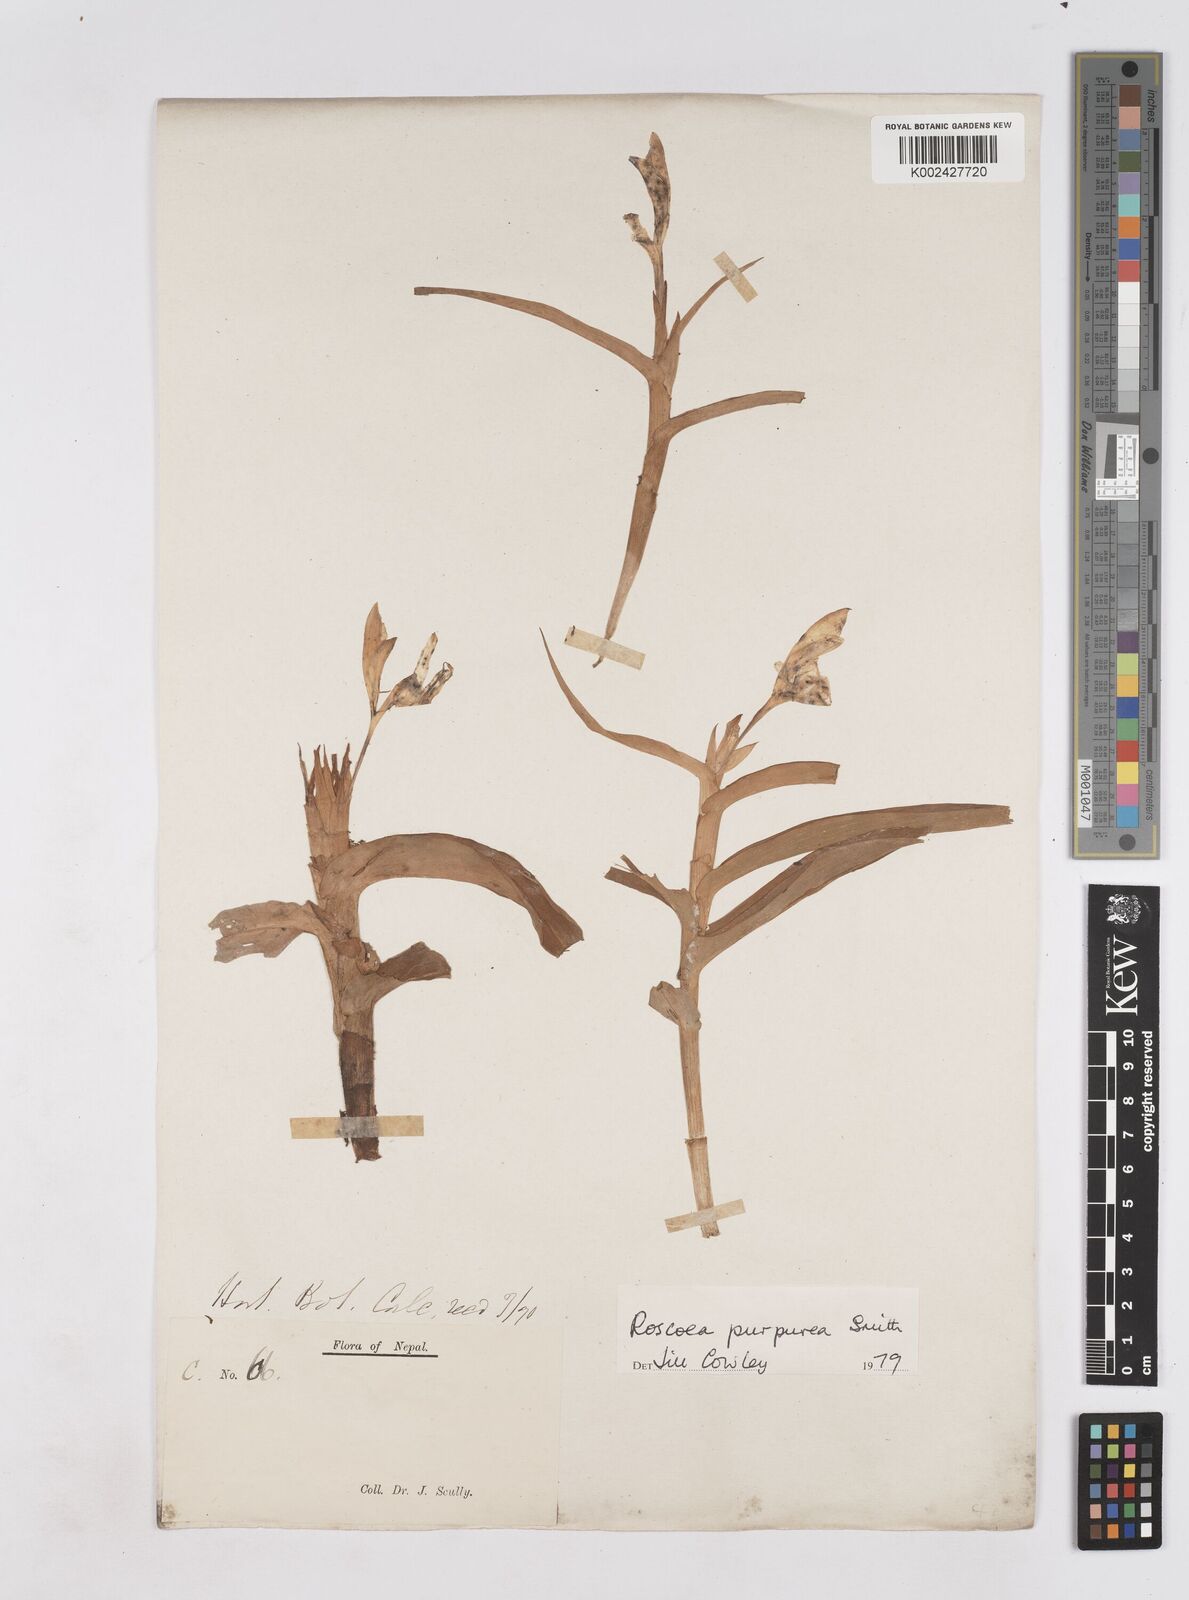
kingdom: Plantae
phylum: Tracheophyta
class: Liliopsida
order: Zingiberales
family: Zingiberaceae
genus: Roscoea
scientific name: Roscoea purpurea
